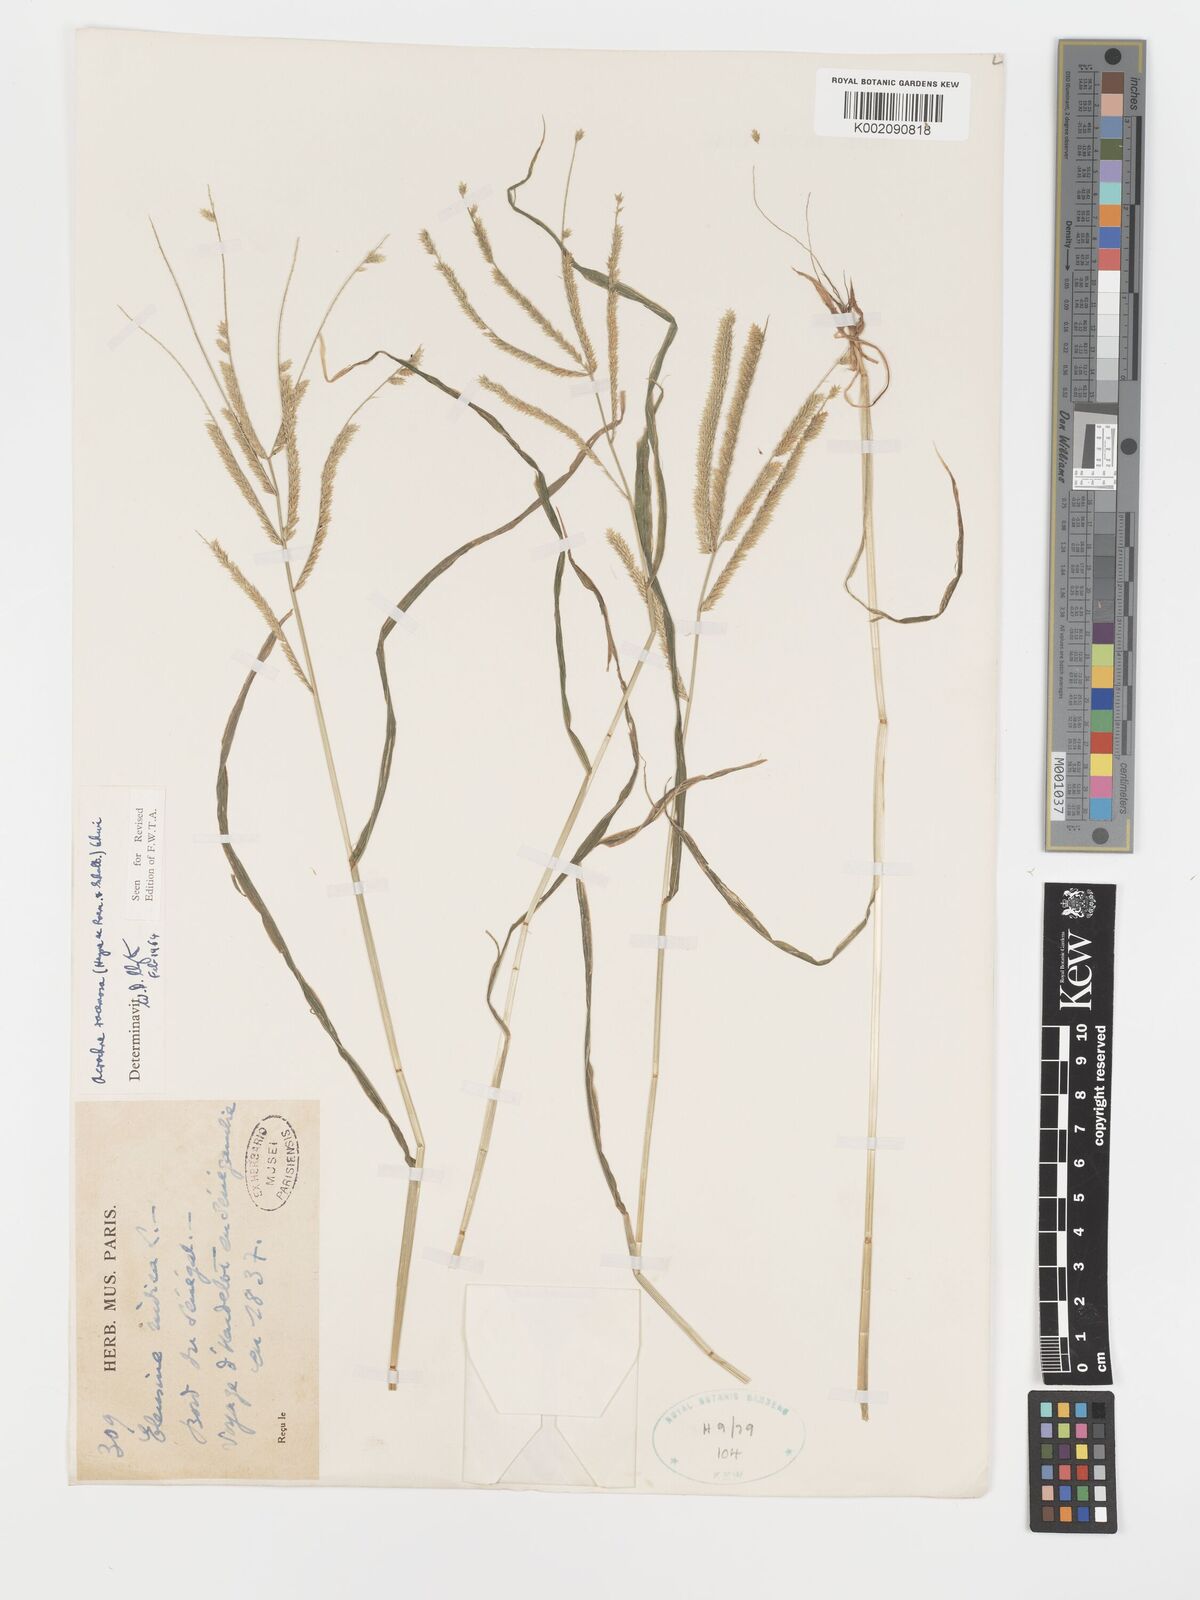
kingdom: Plantae
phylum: Tracheophyta
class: Liliopsida
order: Poales
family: Poaceae
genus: Acrachne
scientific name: Acrachne racemosa
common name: Goosegrass
